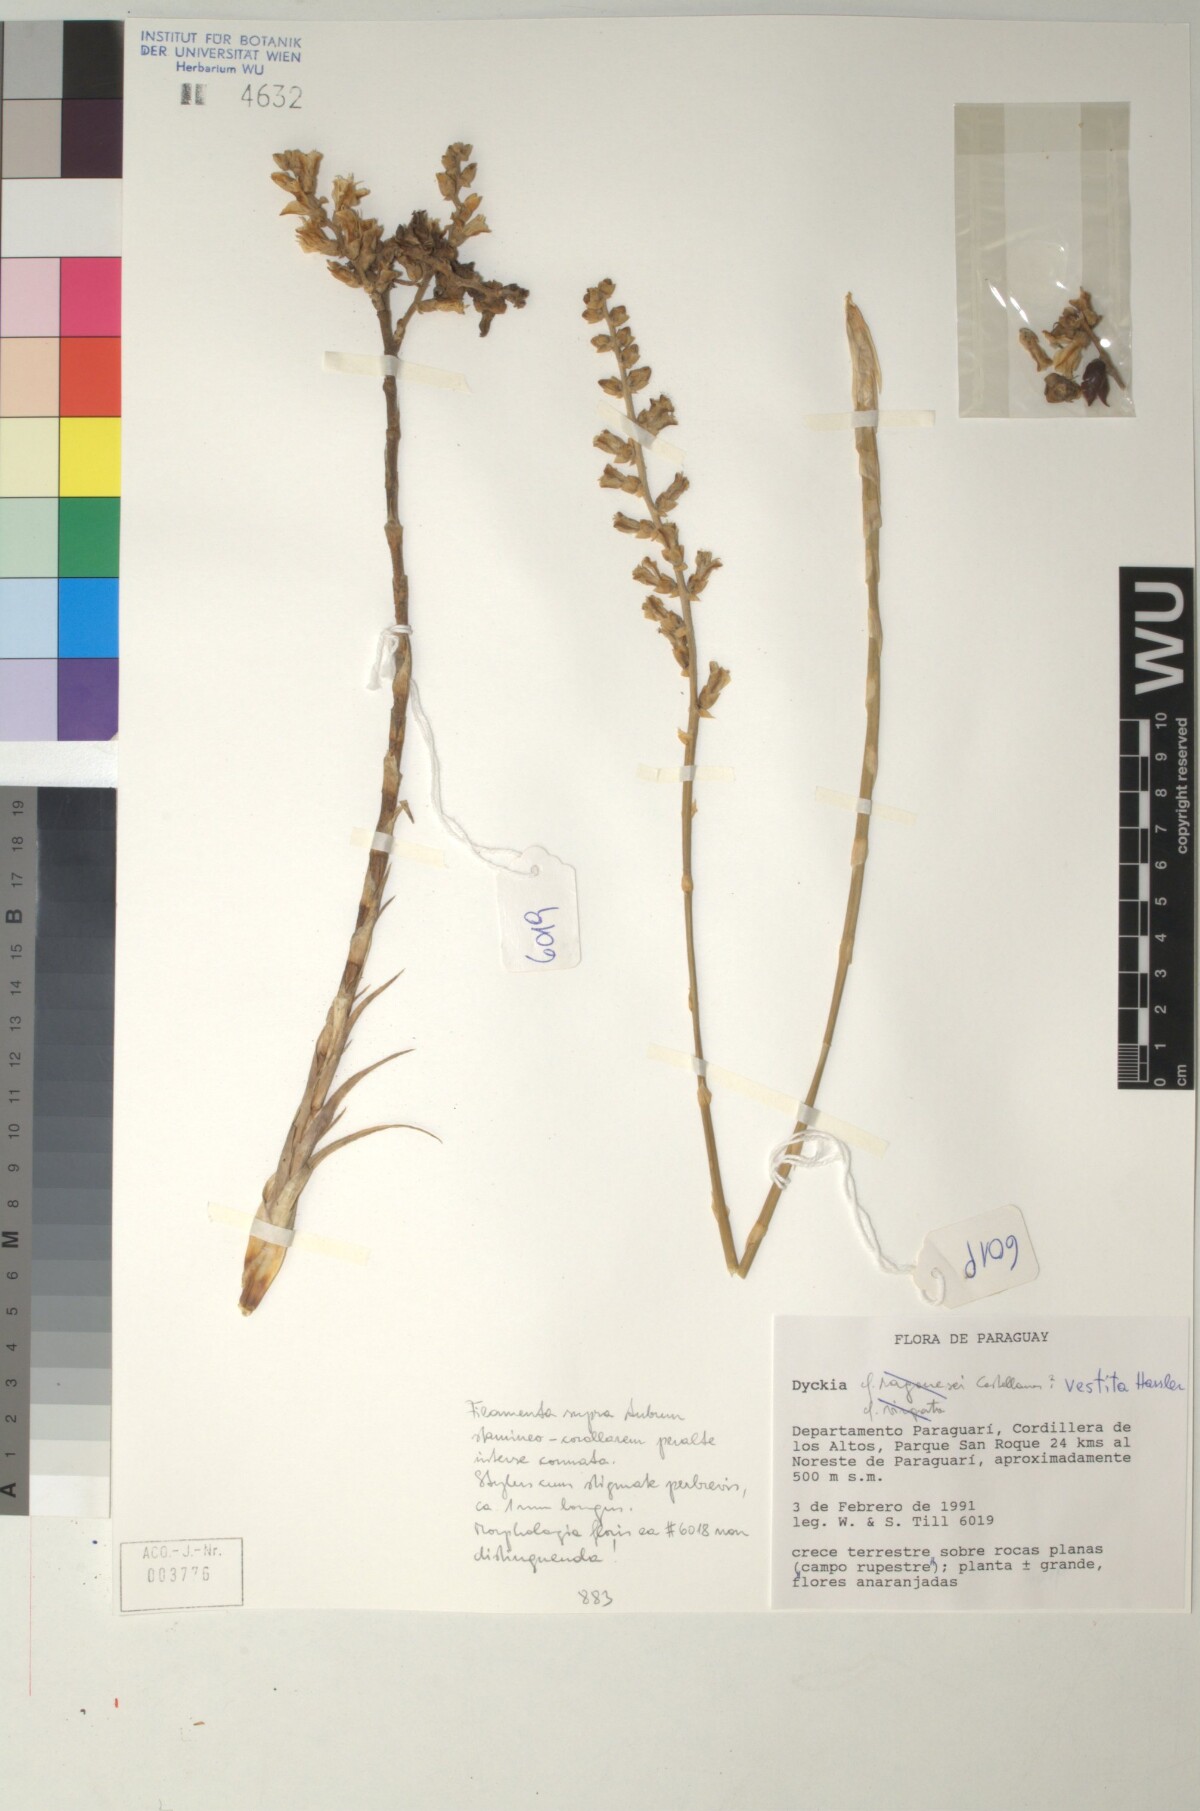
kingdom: Plantae
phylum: Tracheophyta
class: Liliopsida
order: Poales
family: Bromeliaceae
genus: Dyckia
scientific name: Dyckia vestita
